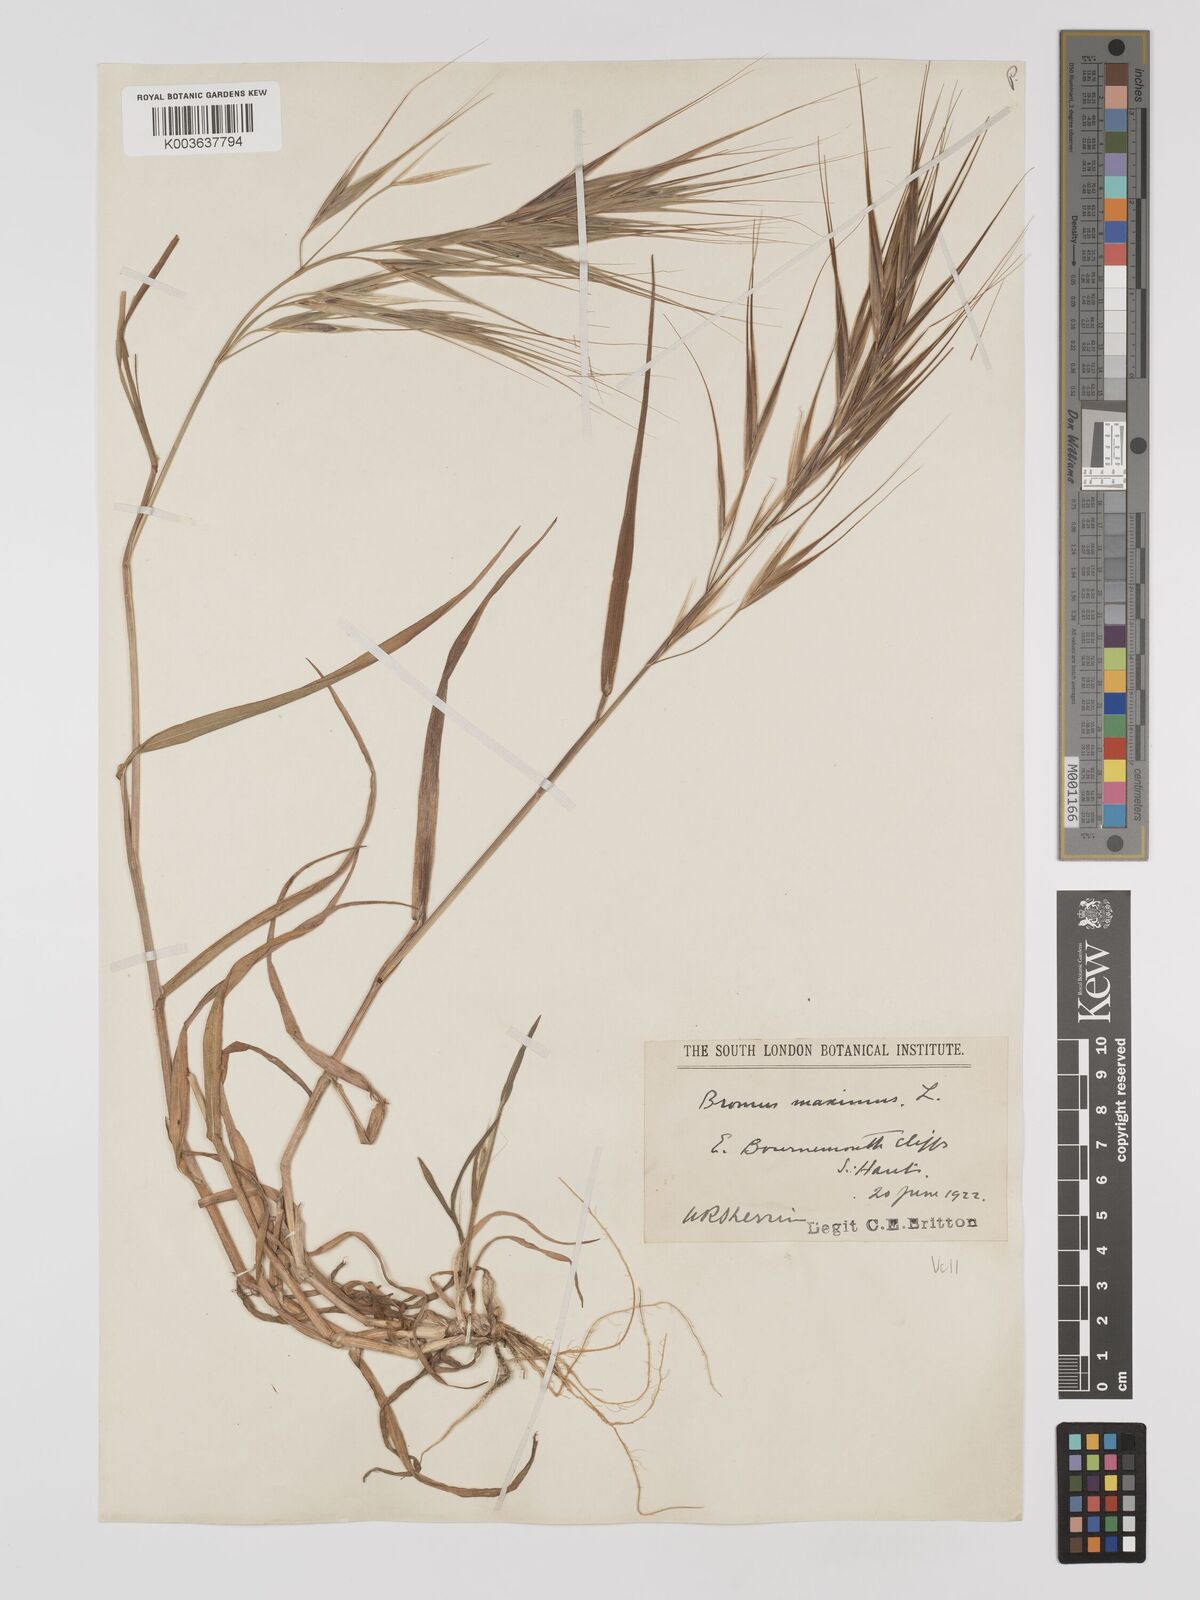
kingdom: Plantae
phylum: Tracheophyta
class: Liliopsida
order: Poales
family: Poaceae
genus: Bromus
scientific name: Bromus
